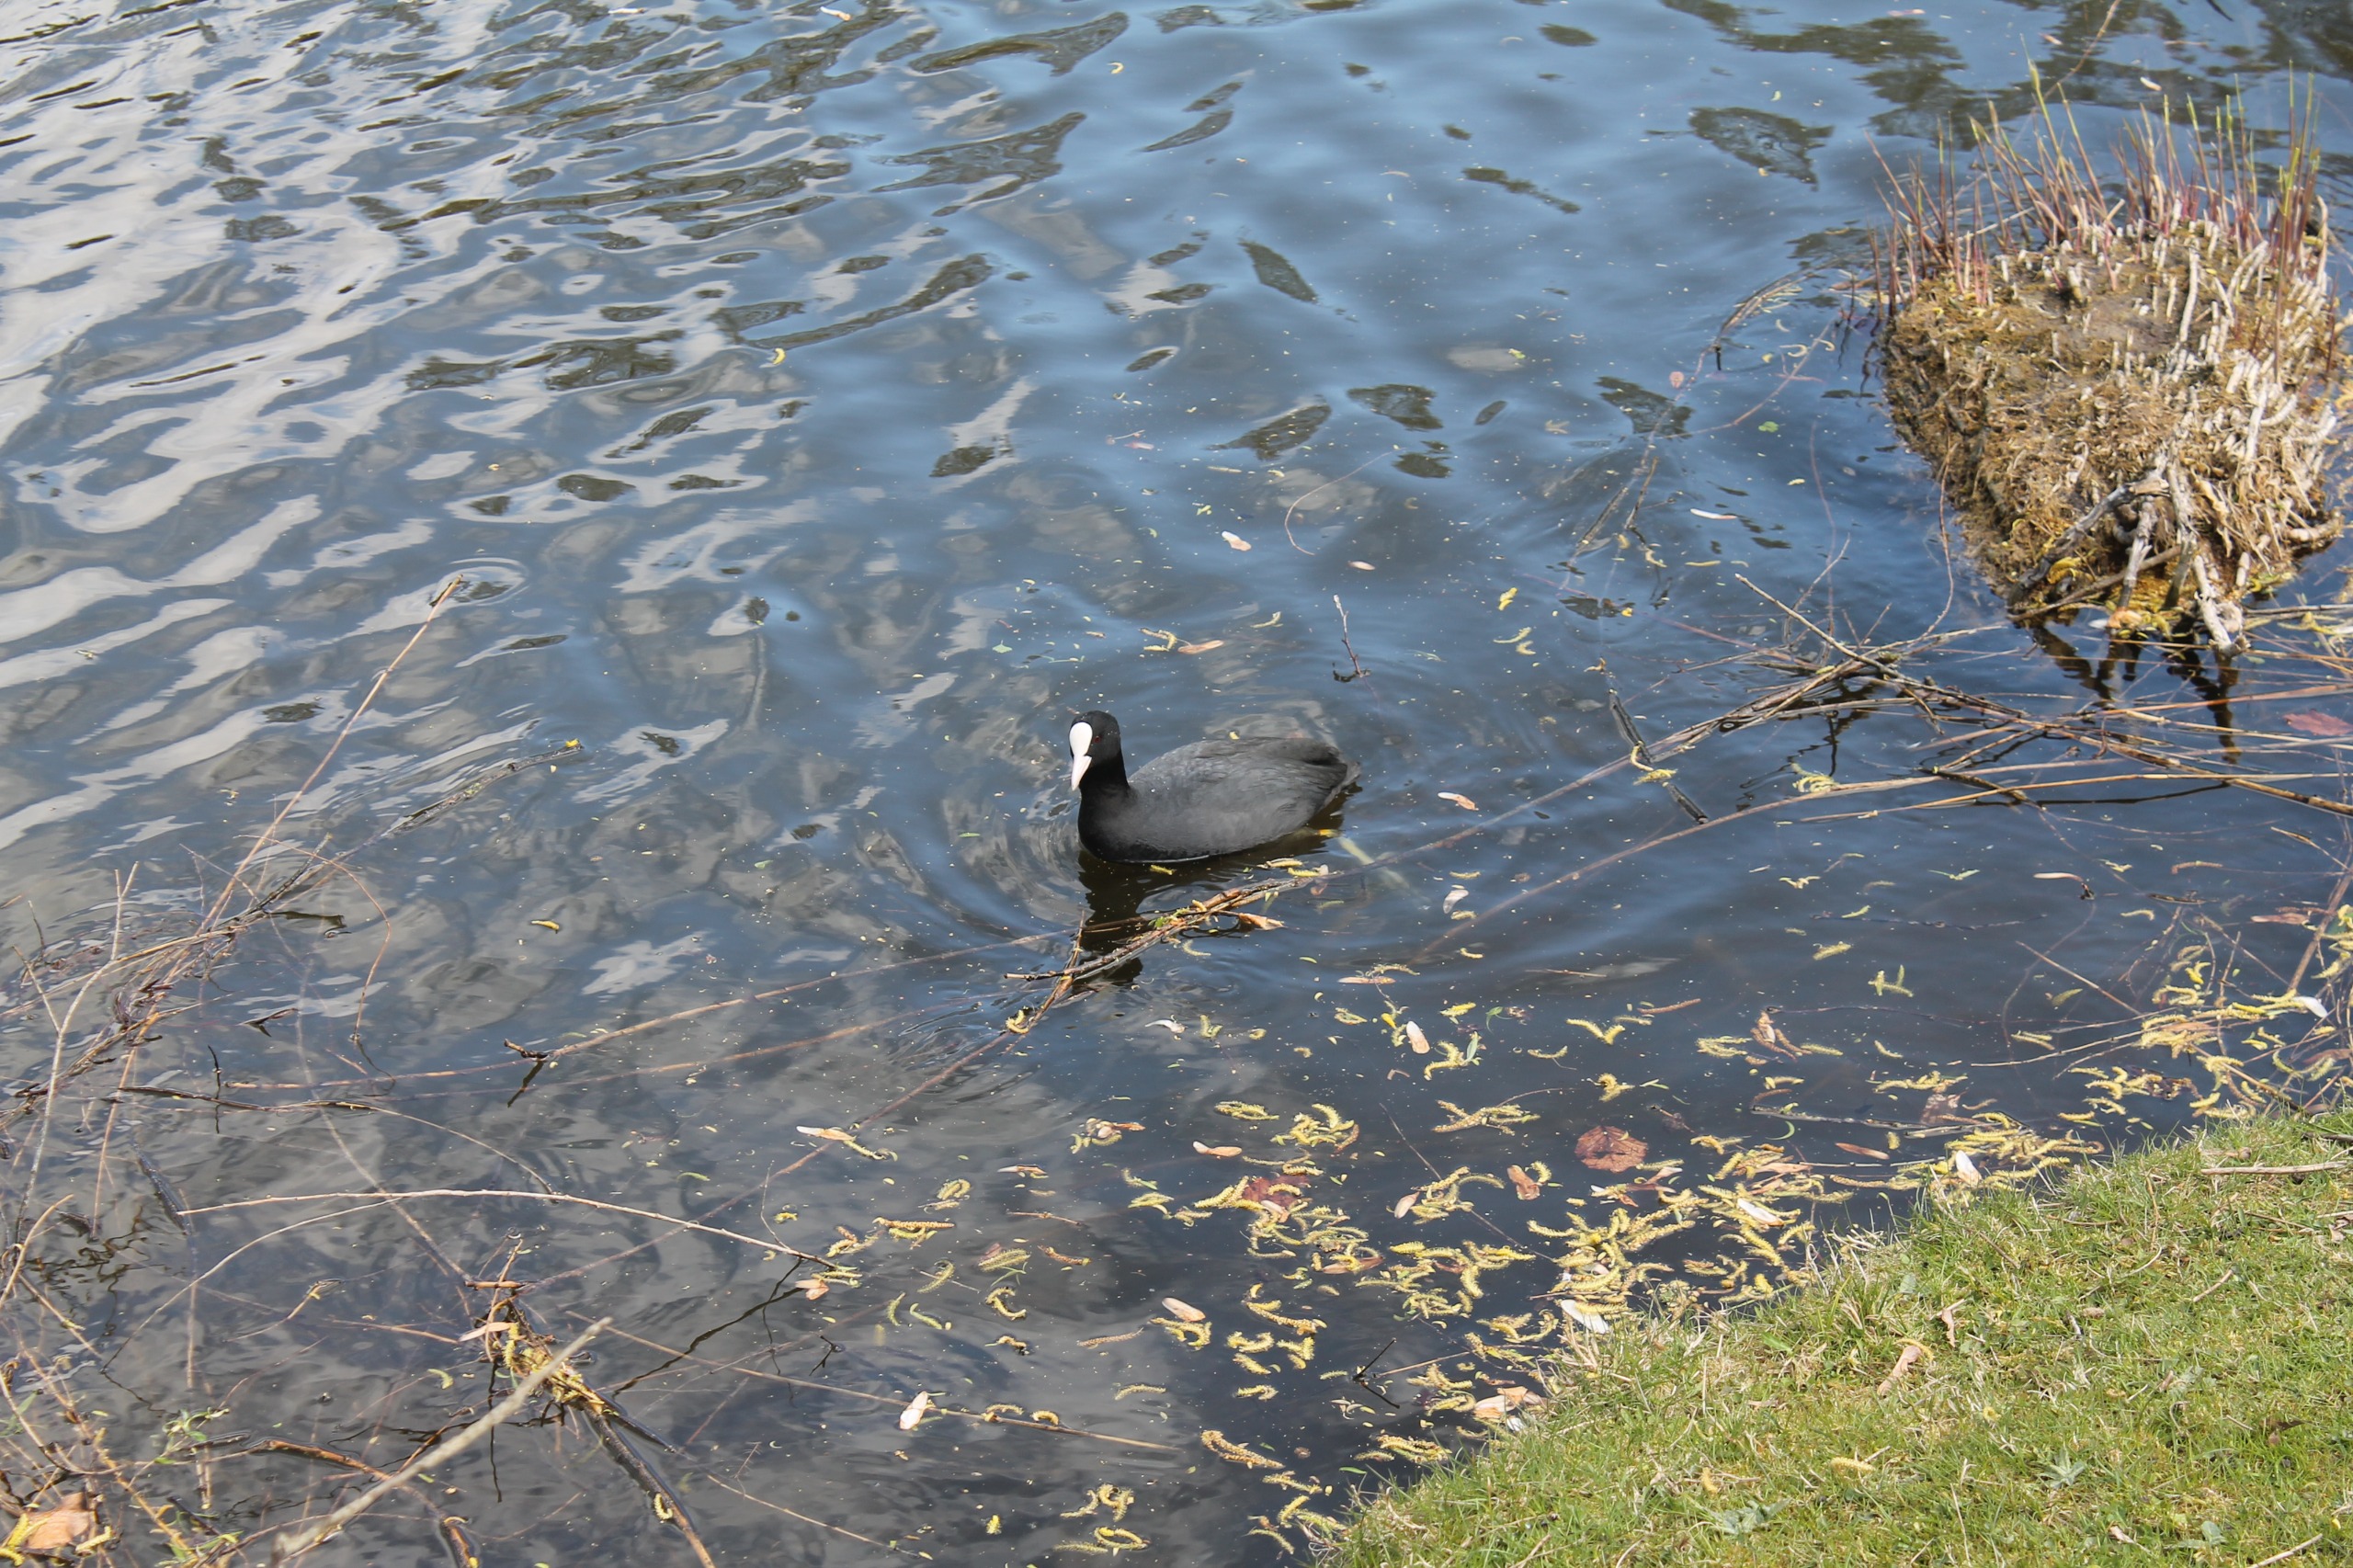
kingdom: Animalia
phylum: Chordata
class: Aves
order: Gruiformes
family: Rallidae
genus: Fulica
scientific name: Fulica atra
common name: Blishøne
